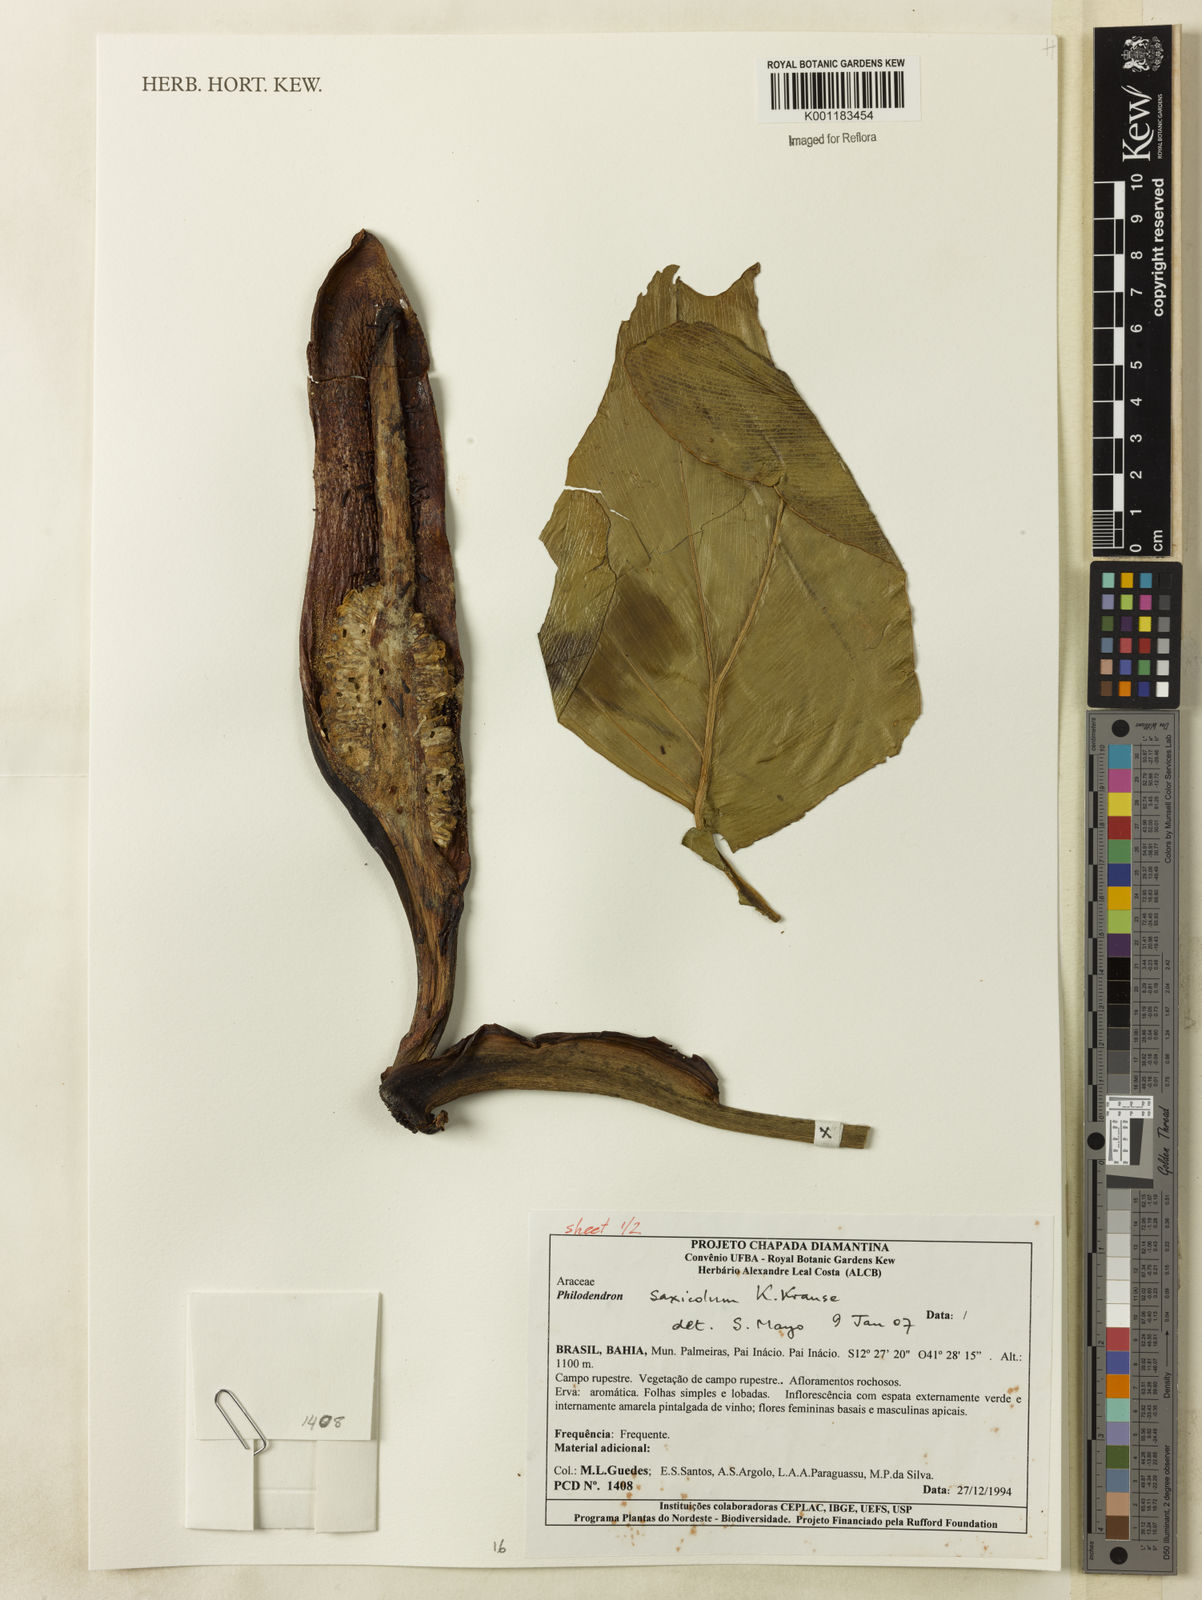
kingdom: Plantae
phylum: Tracheophyta
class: Liliopsida
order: Alismatales
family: Araceae
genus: Thaumatophyllum
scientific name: Thaumatophyllum saxicola
